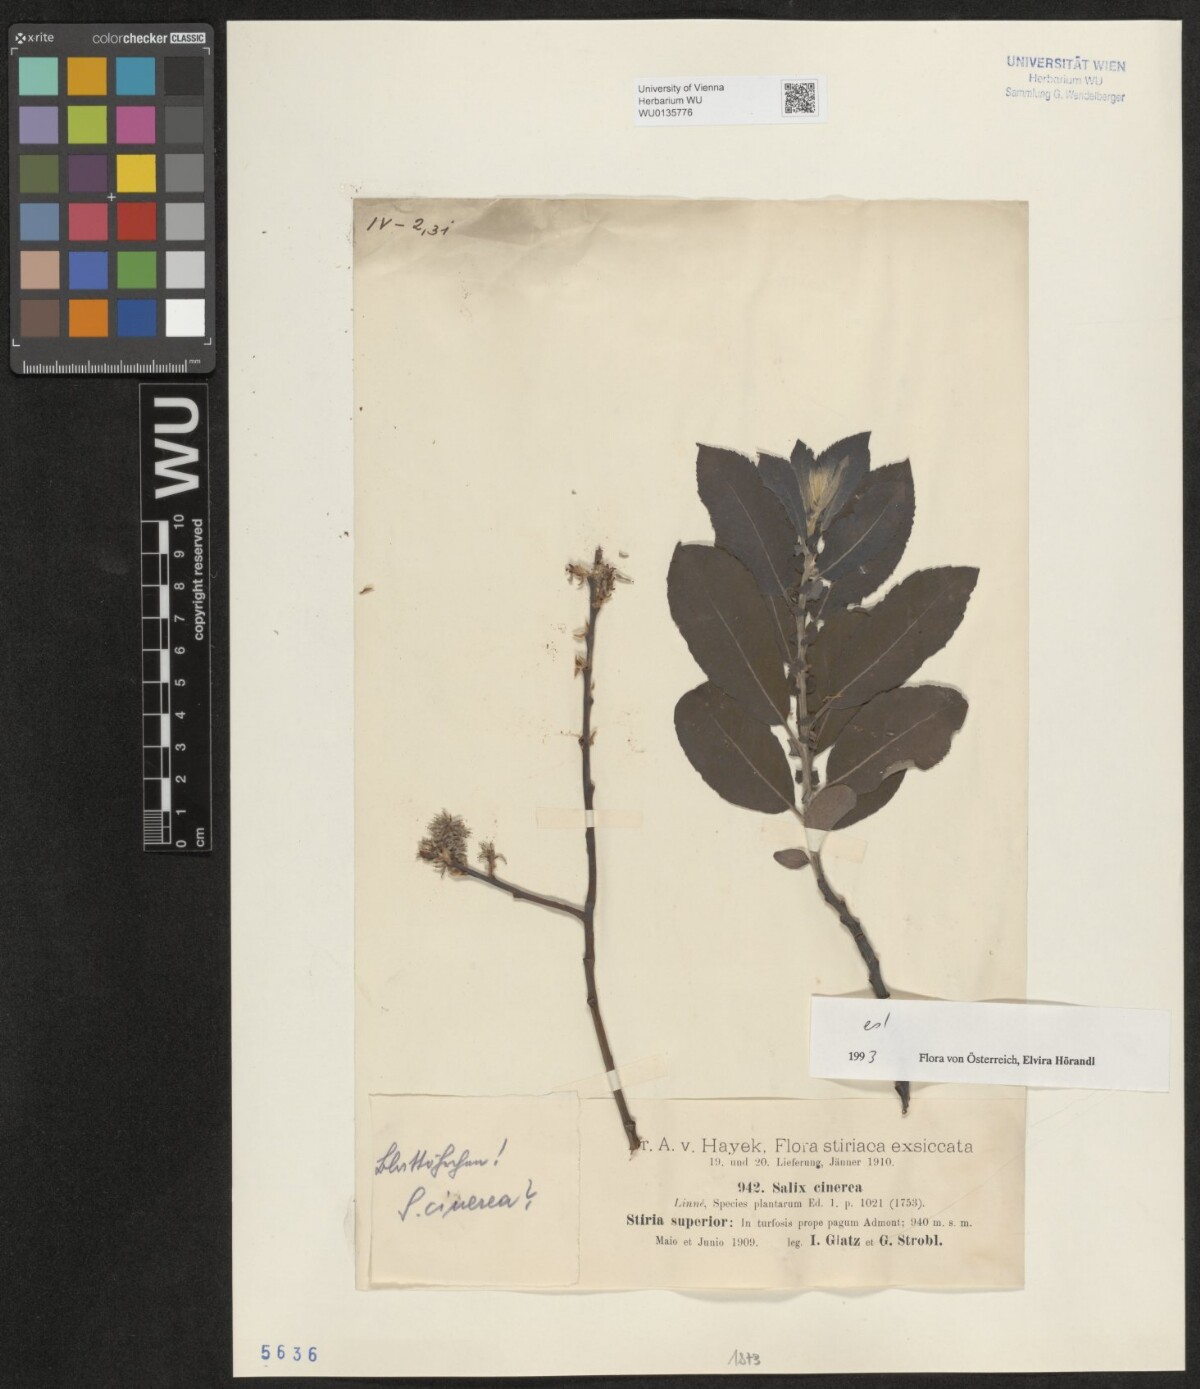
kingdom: Plantae
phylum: Tracheophyta
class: Magnoliopsida
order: Malpighiales
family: Salicaceae
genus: Salix
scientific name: Salix cinerea
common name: Common sallow
